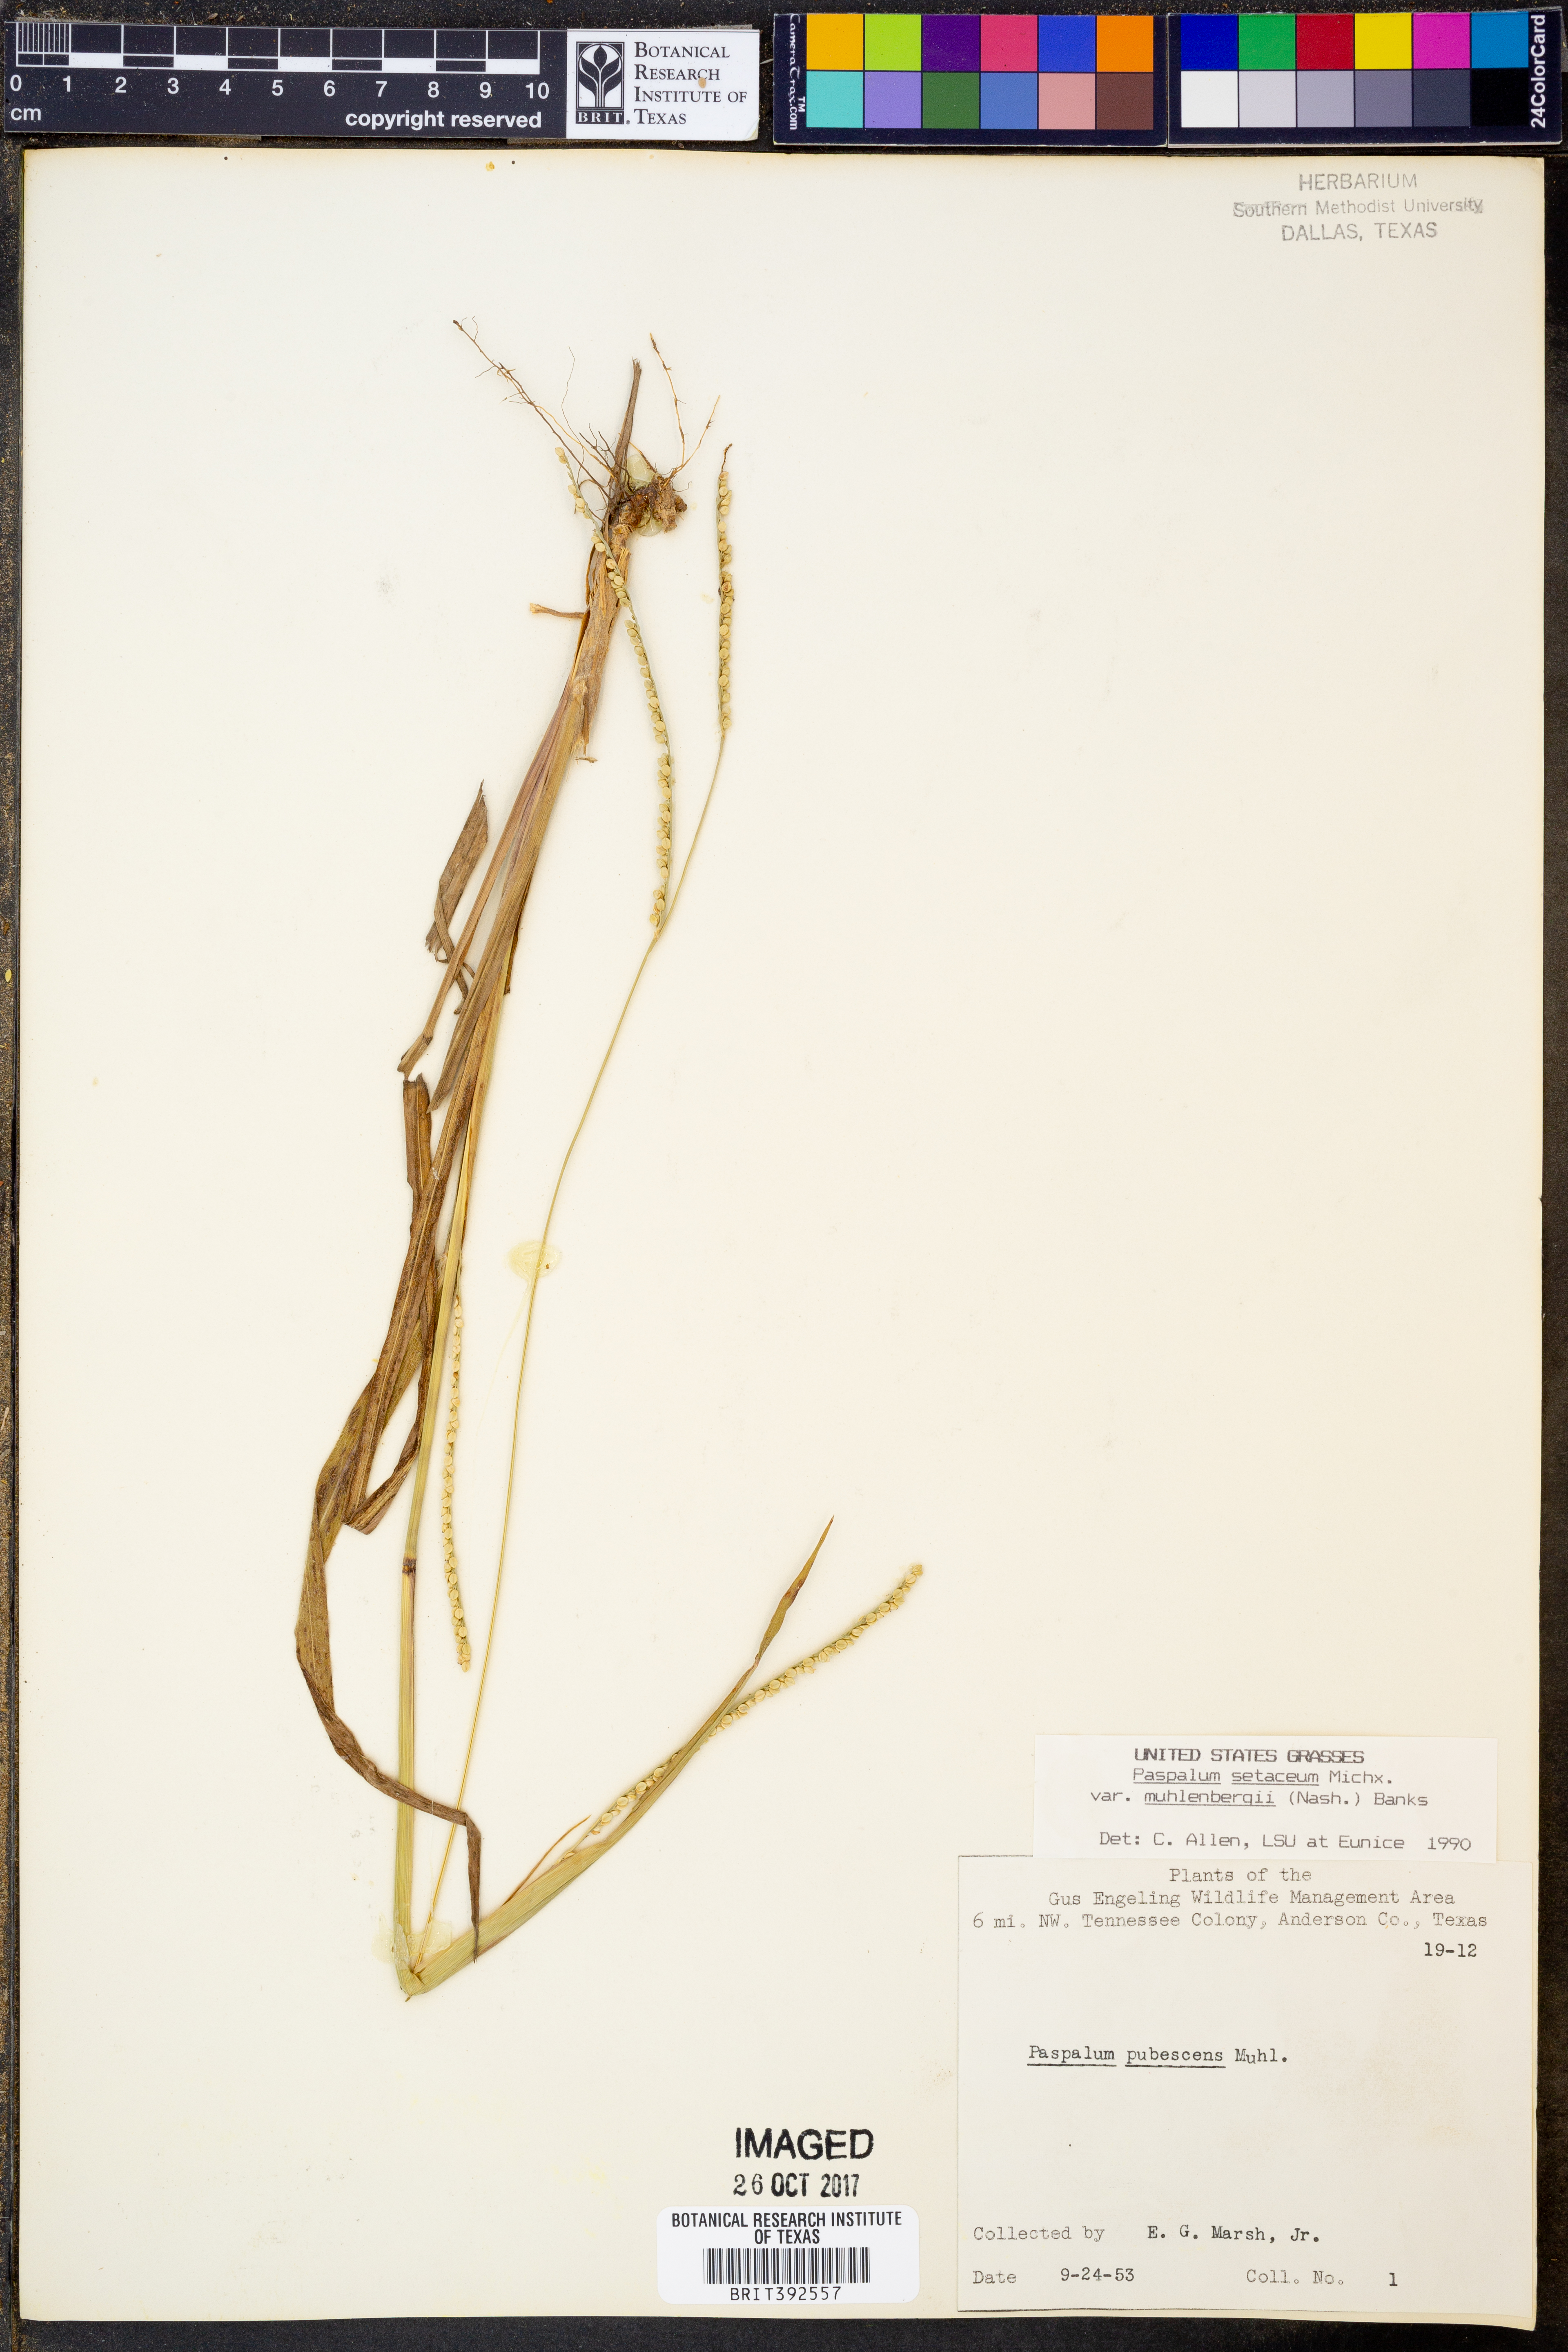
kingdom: Plantae
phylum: Tracheophyta
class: Liliopsida
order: Poales
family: Poaceae
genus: Paspalum
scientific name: Paspalum setaceum
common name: Slender paspalum
